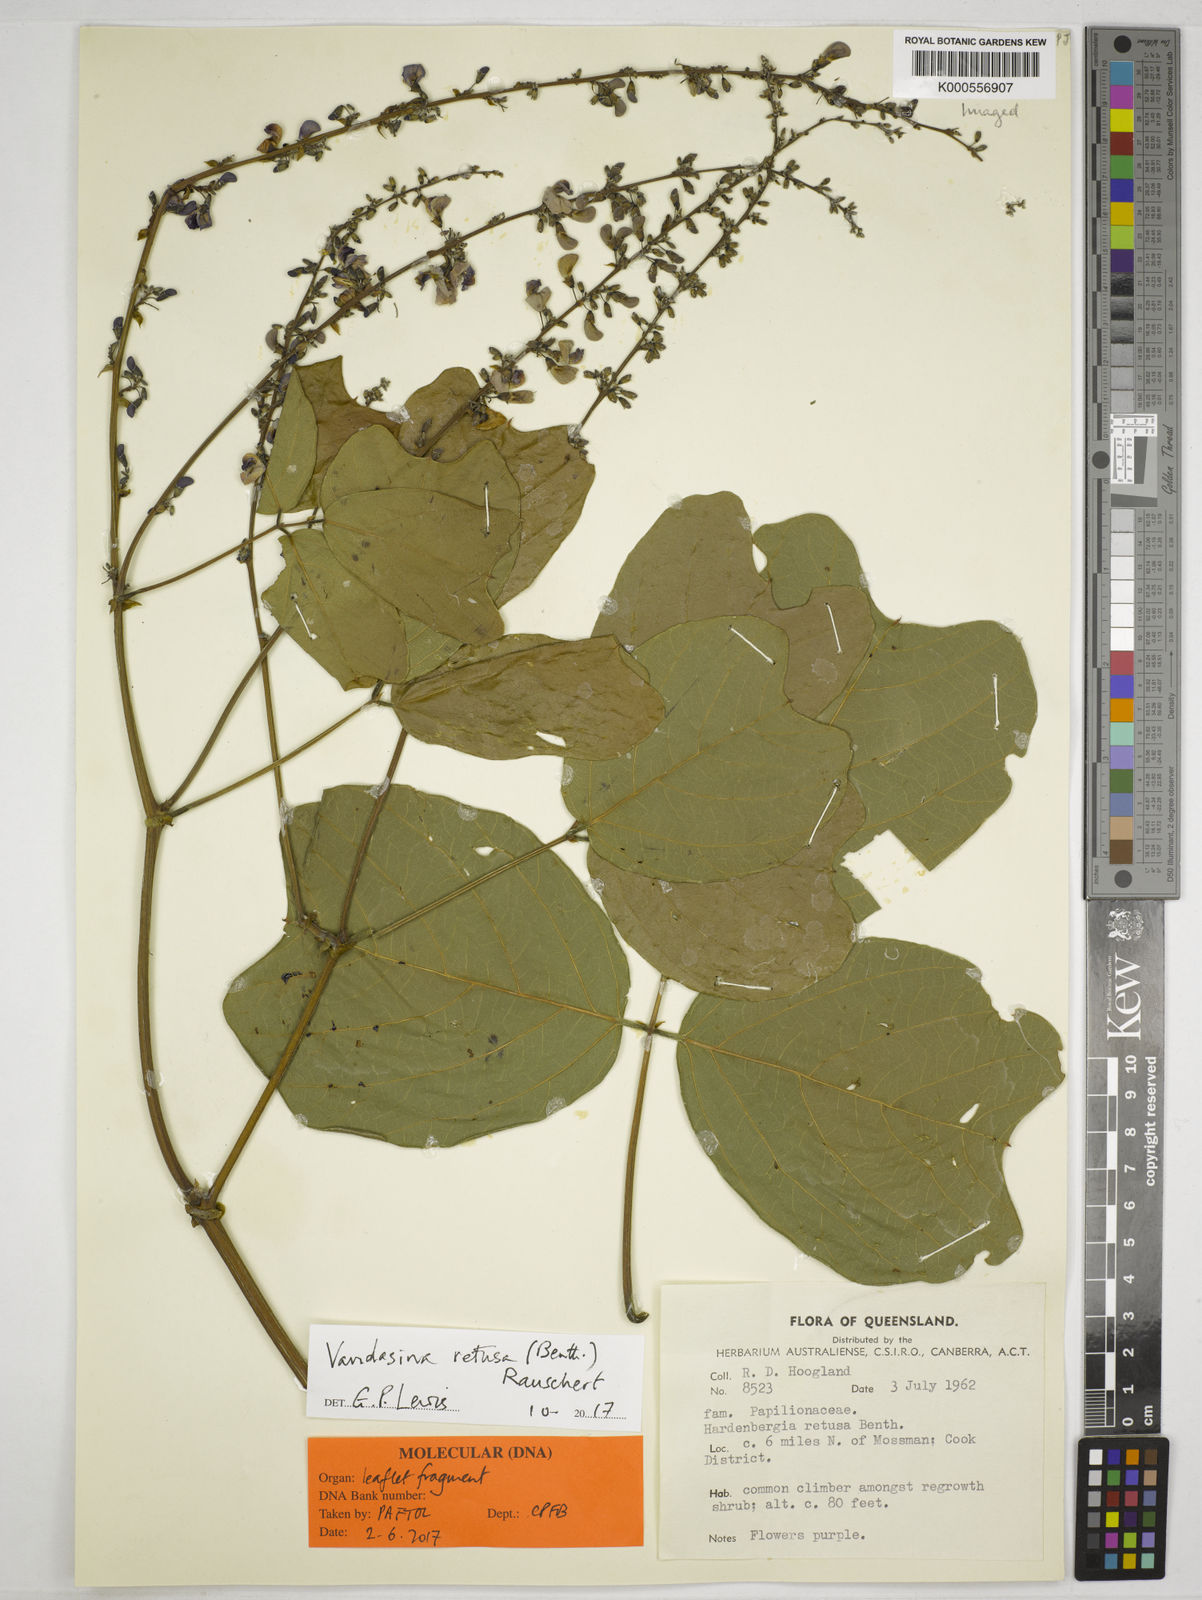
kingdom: Plantae
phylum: Tracheophyta
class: Magnoliopsida
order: Fabales
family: Fabaceae
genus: Vandasina
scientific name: Vandasina retusa
